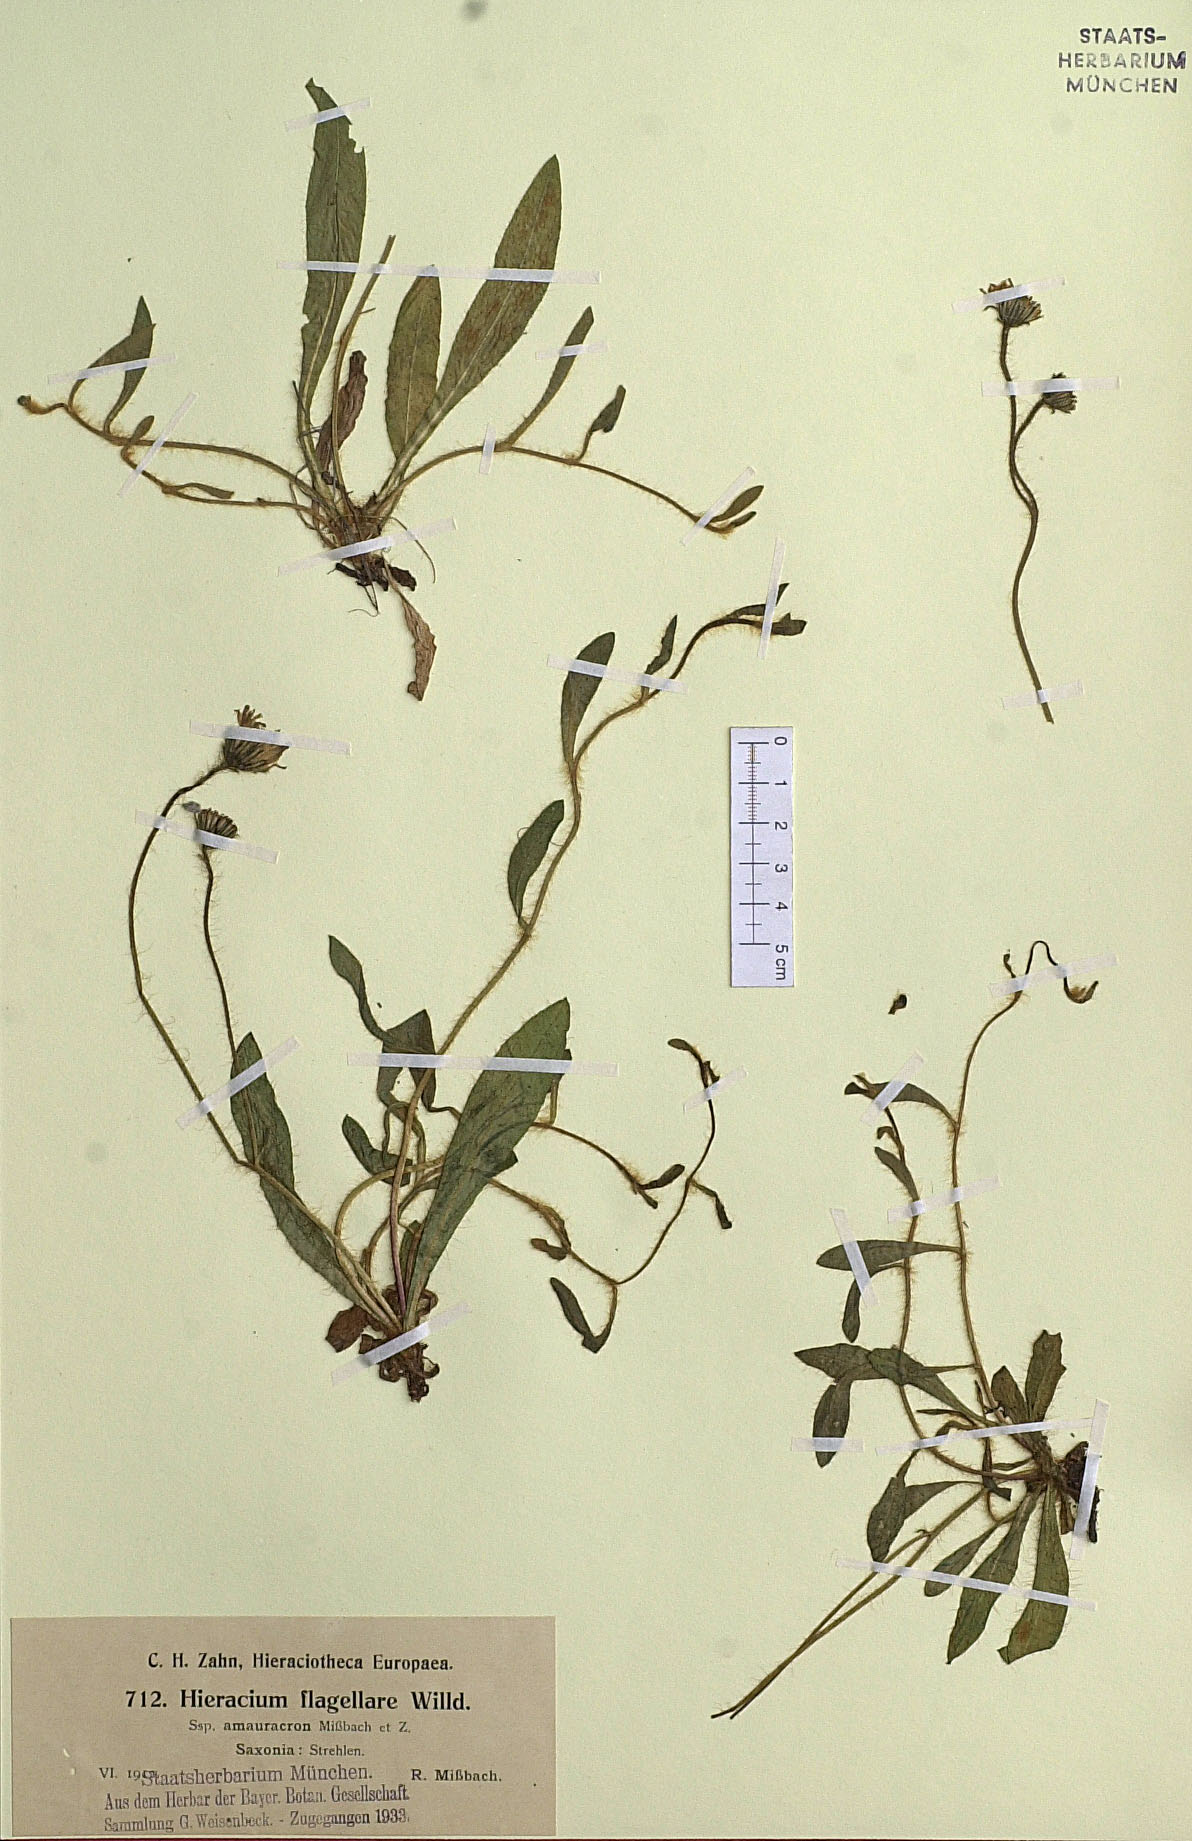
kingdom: Plantae
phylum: Tracheophyta
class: Magnoliopsida
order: Asterales
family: Asteraceae
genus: Pilosella
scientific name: Pilosella
